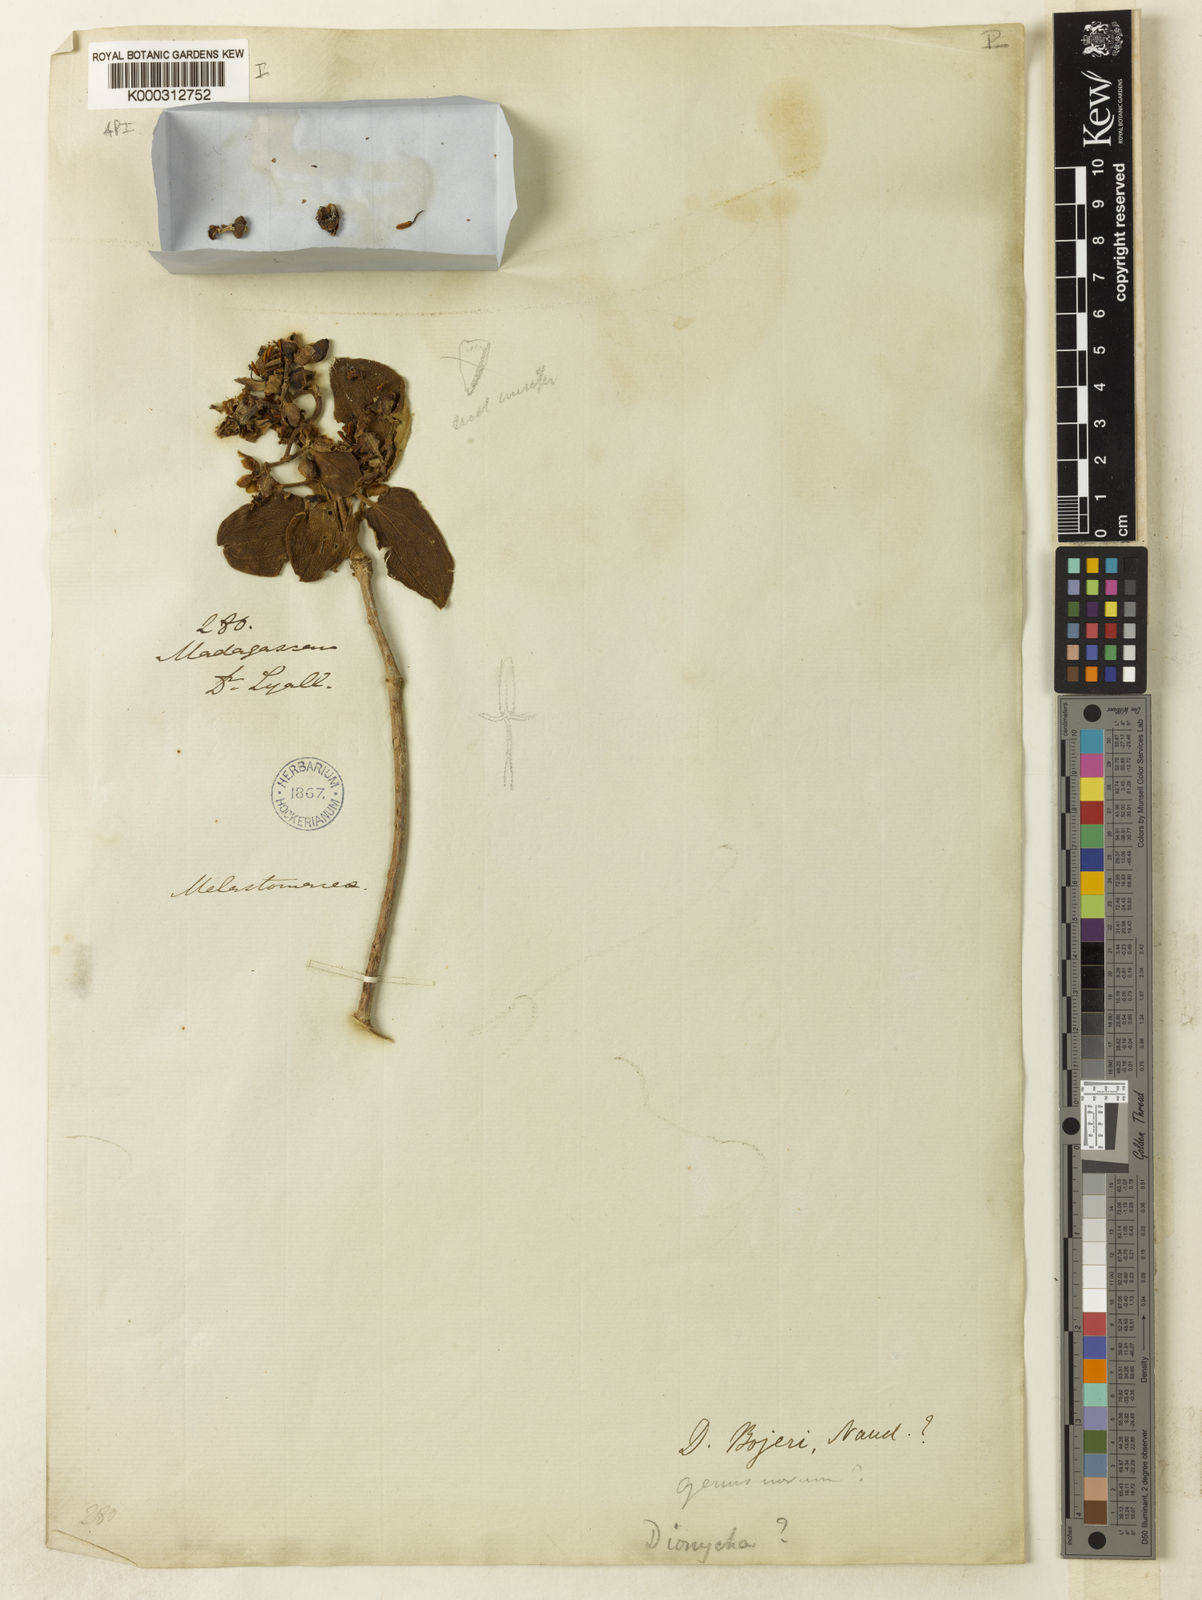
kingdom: Plantae
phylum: Tracheophyta
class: Magnoliopsida
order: Myrtales
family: Melastomataceae
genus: Dionycha
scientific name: Dionycha bojerii
